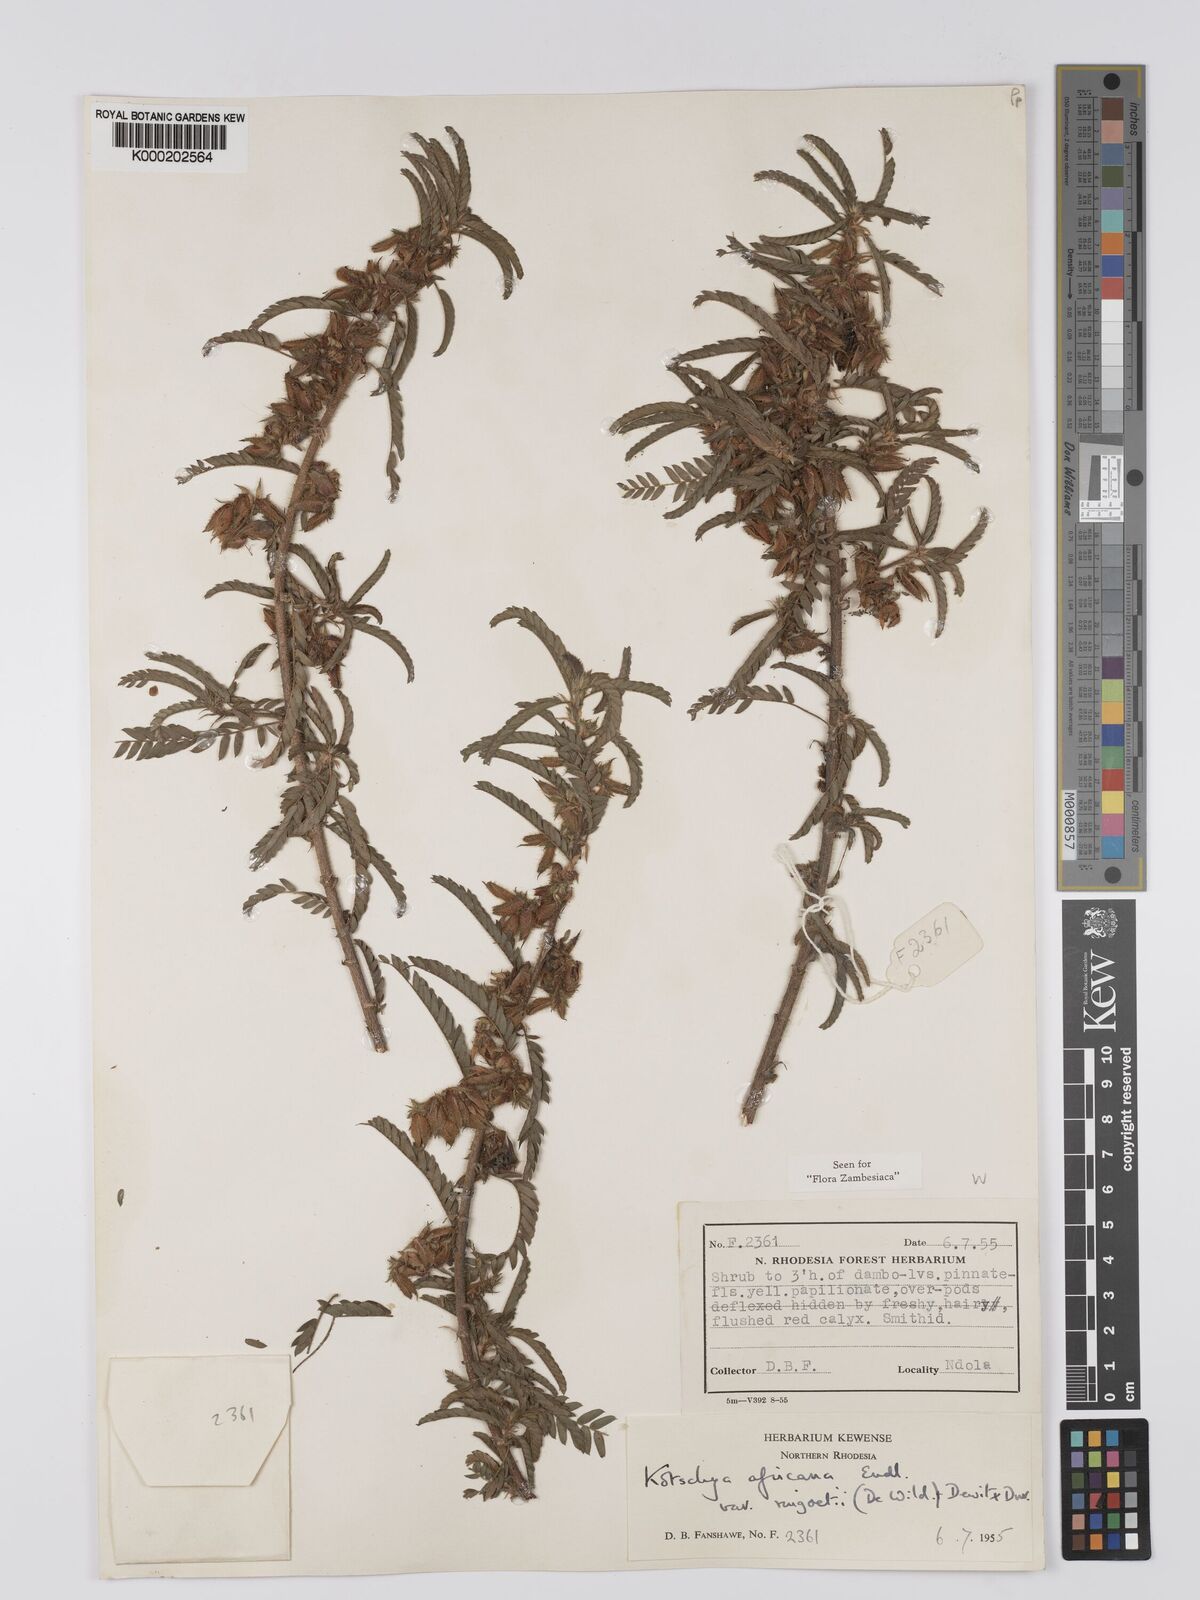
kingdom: Plantae
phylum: Tracheophyta
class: Magnoliopsida
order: Fabales
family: Fabaceae
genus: Kotschya
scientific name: Kotschya africana
